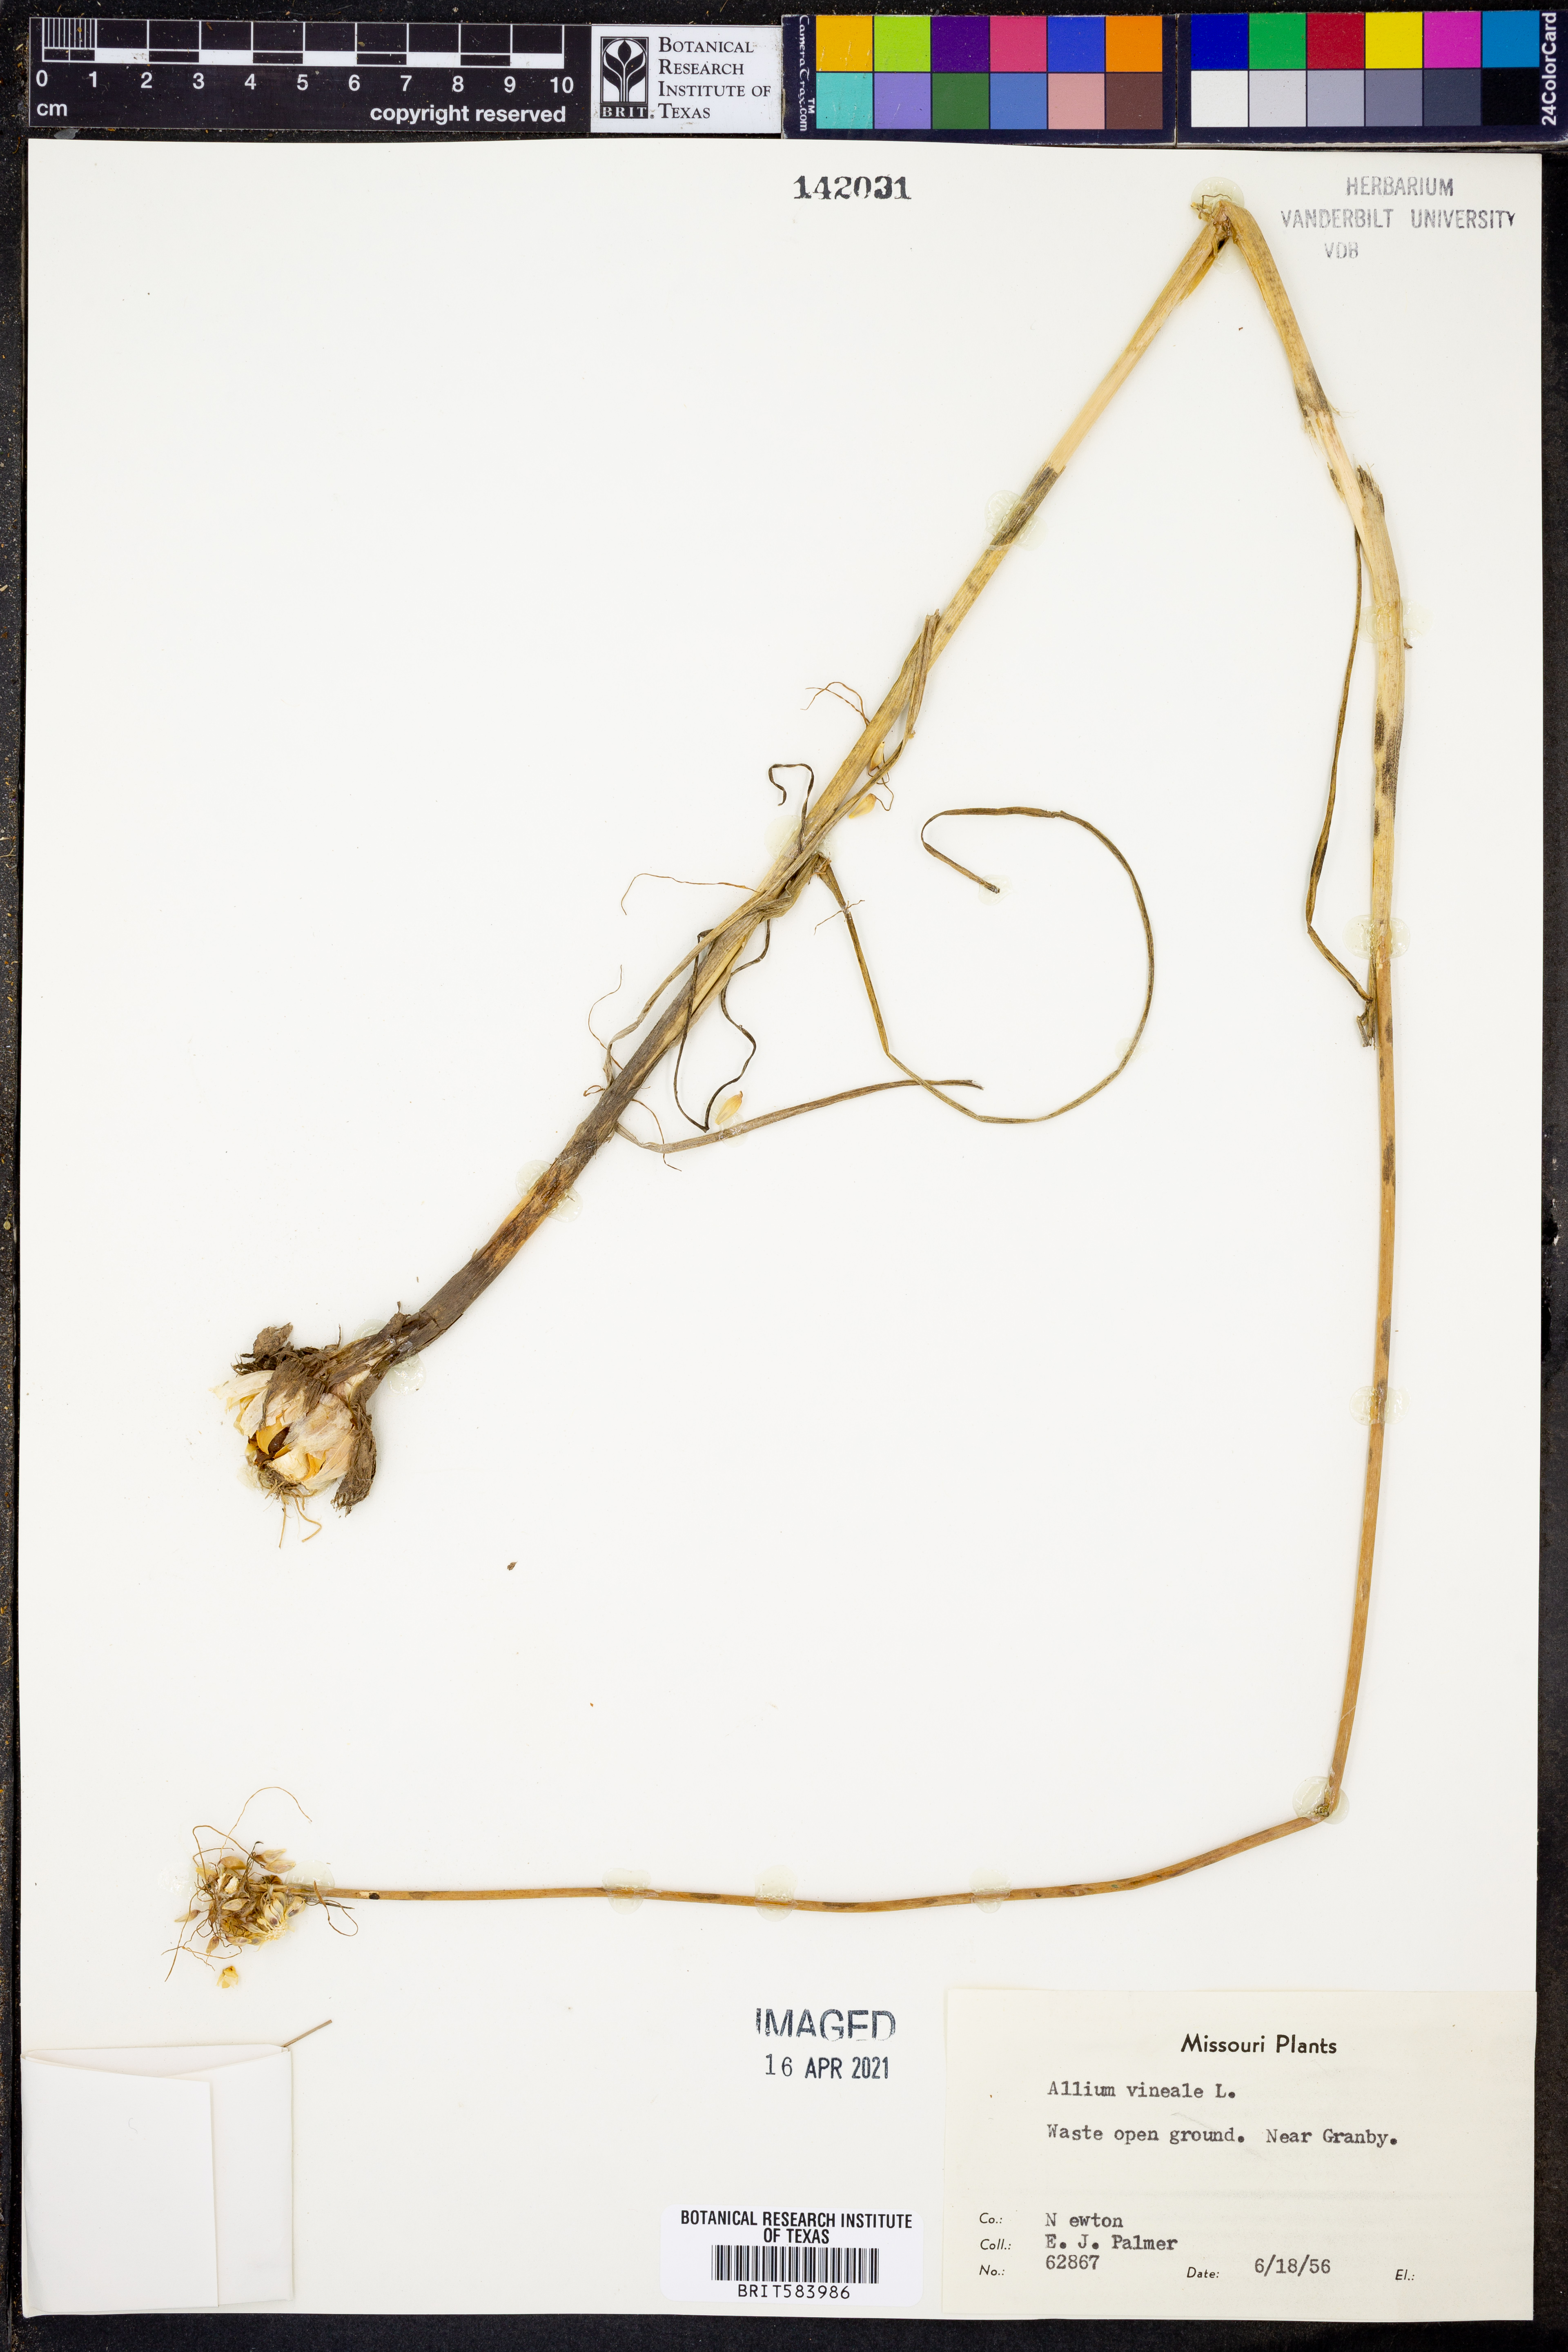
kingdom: Plantae
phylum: Tracheophyta
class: Liliopsida
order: Asparagales
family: Amaryllidaceae
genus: Allium
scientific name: Allium vineale
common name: Crow garlic
